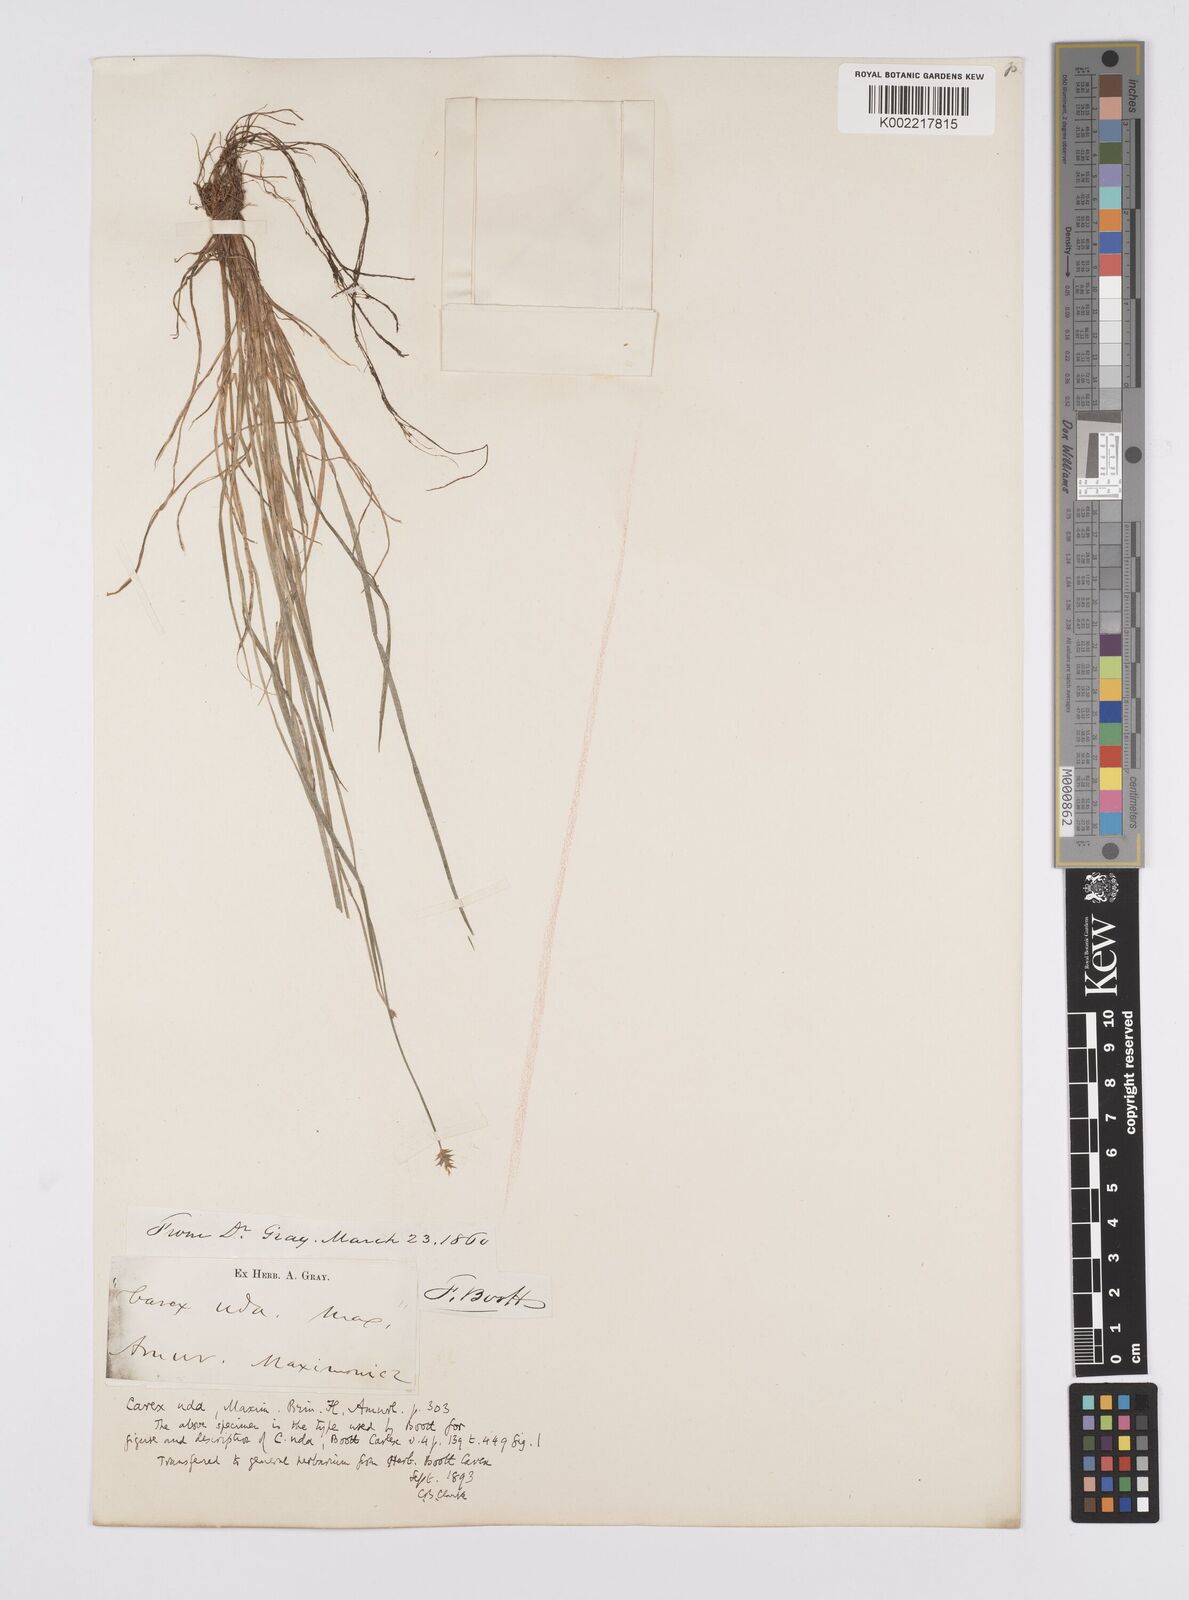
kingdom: Plantae
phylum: Tracheophyta
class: Liliopsida
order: Poales
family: Cyperaceae
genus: Carex
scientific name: Carex uda
